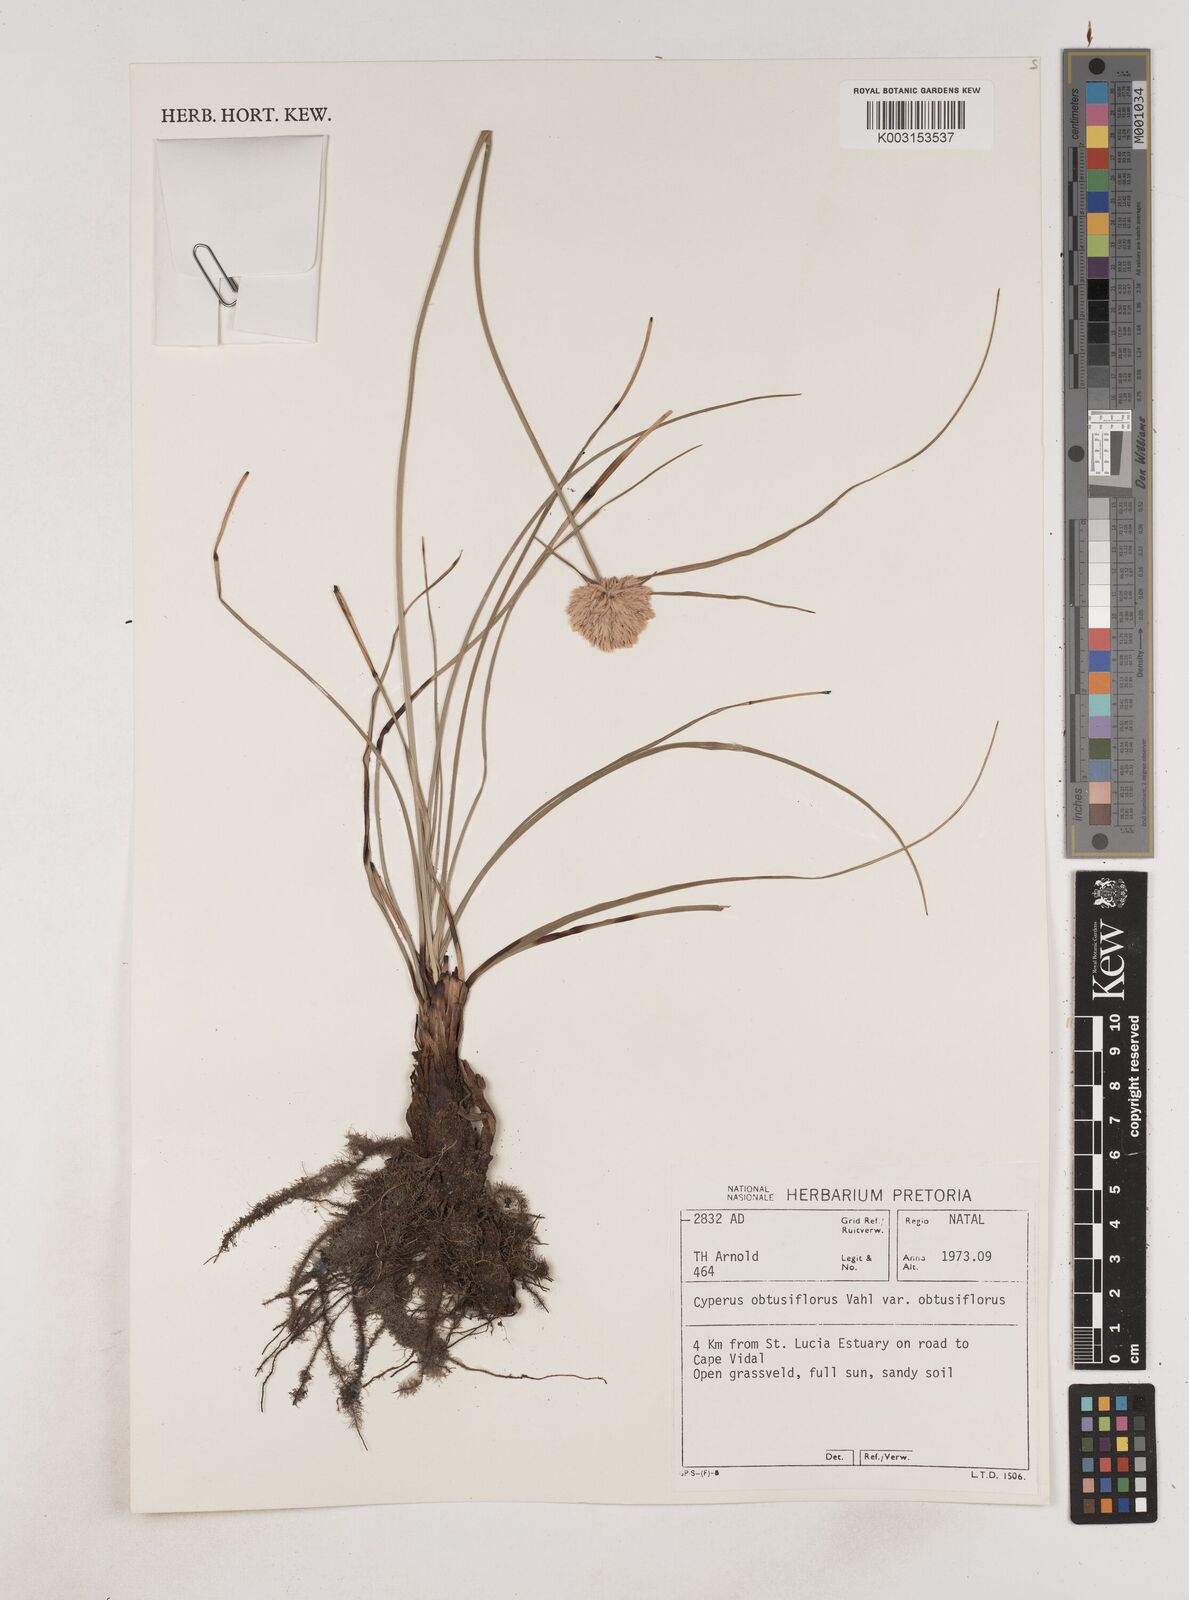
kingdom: Plantae
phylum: Tracheophyta
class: Liliopsida
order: Poales
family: Cyperaceae
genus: Cyperus
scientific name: Cyperus niveus
